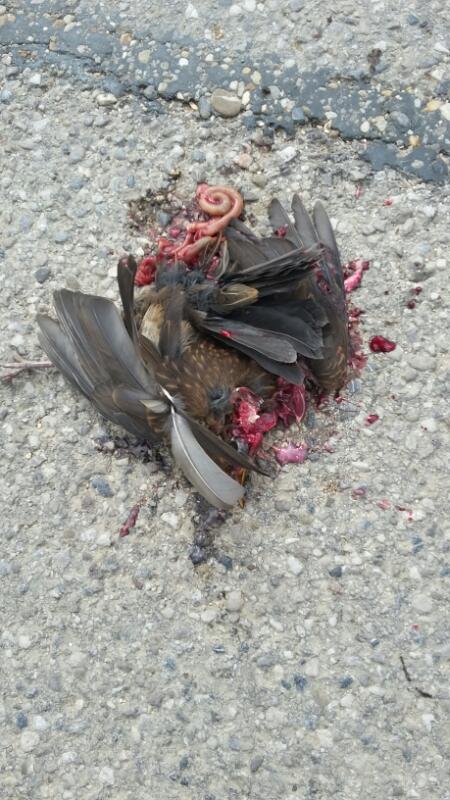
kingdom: Animalia
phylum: Chordata
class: Aves
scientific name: Aves
